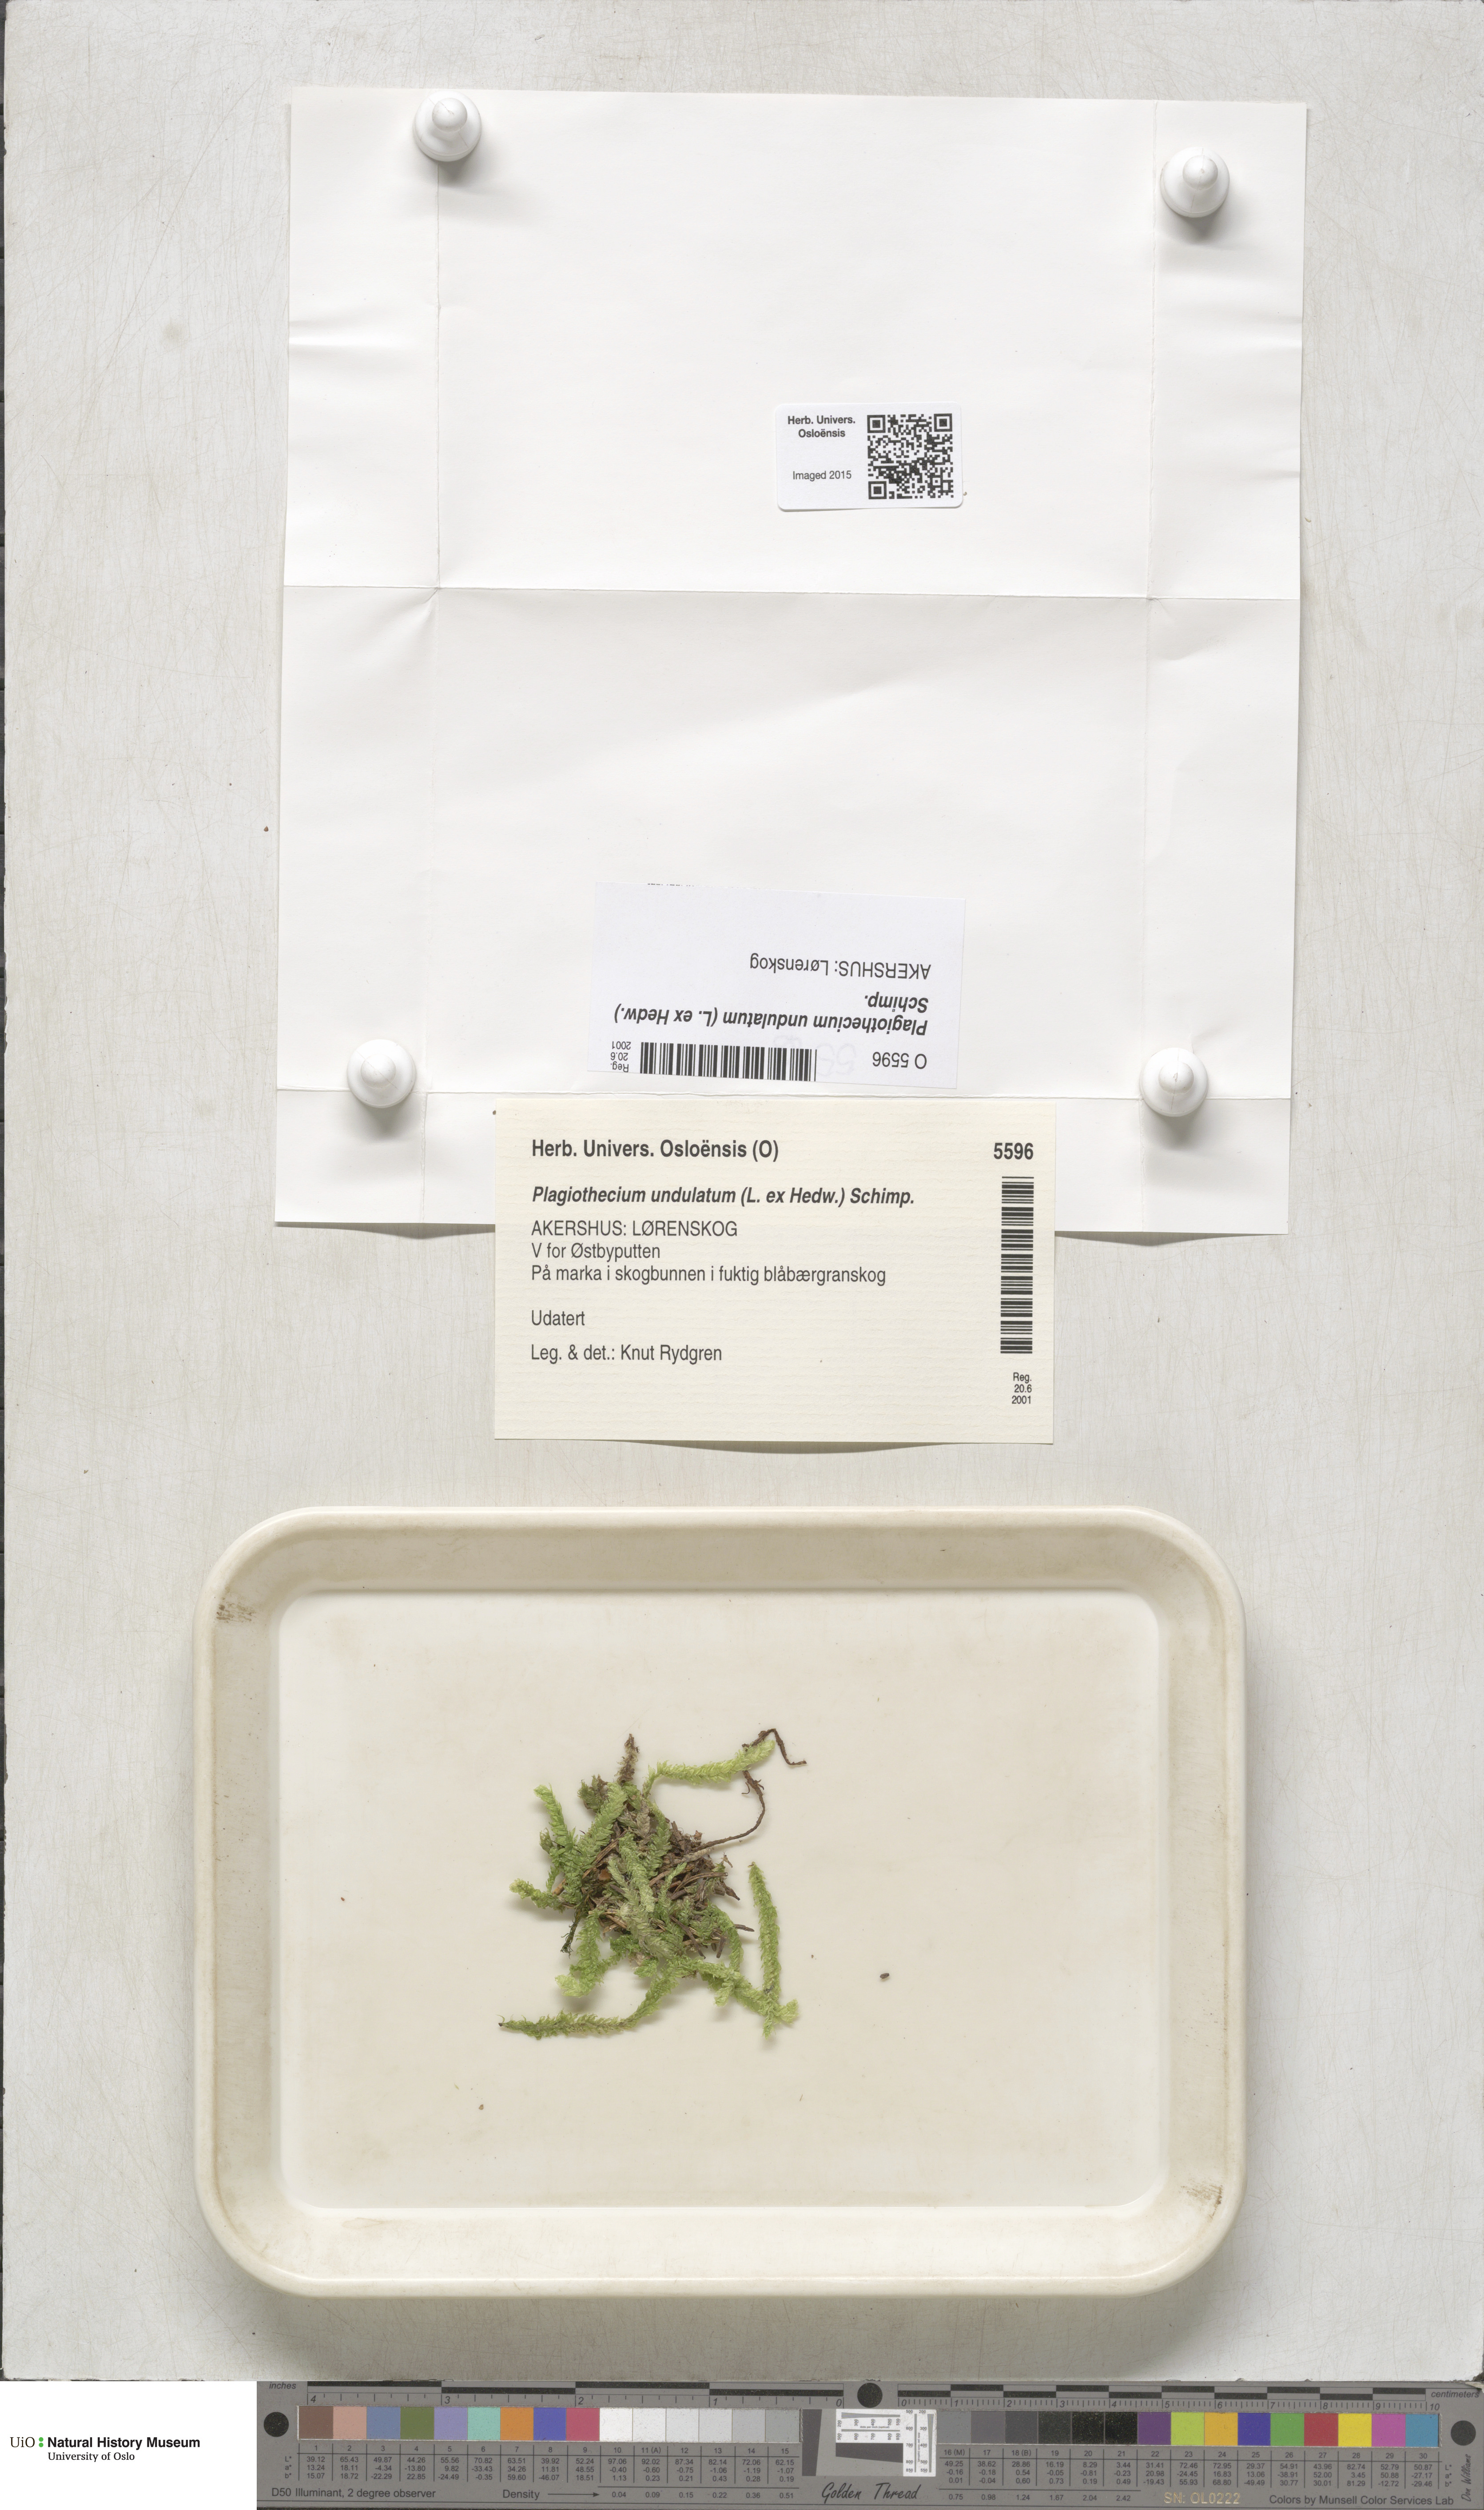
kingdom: Plantae
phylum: Bryophyta
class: Bryopsida
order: Hypnales
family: Plagiotheciaceae
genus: Plagiothecium
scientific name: Plagiothecium undulatum
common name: Waved silk-moss
